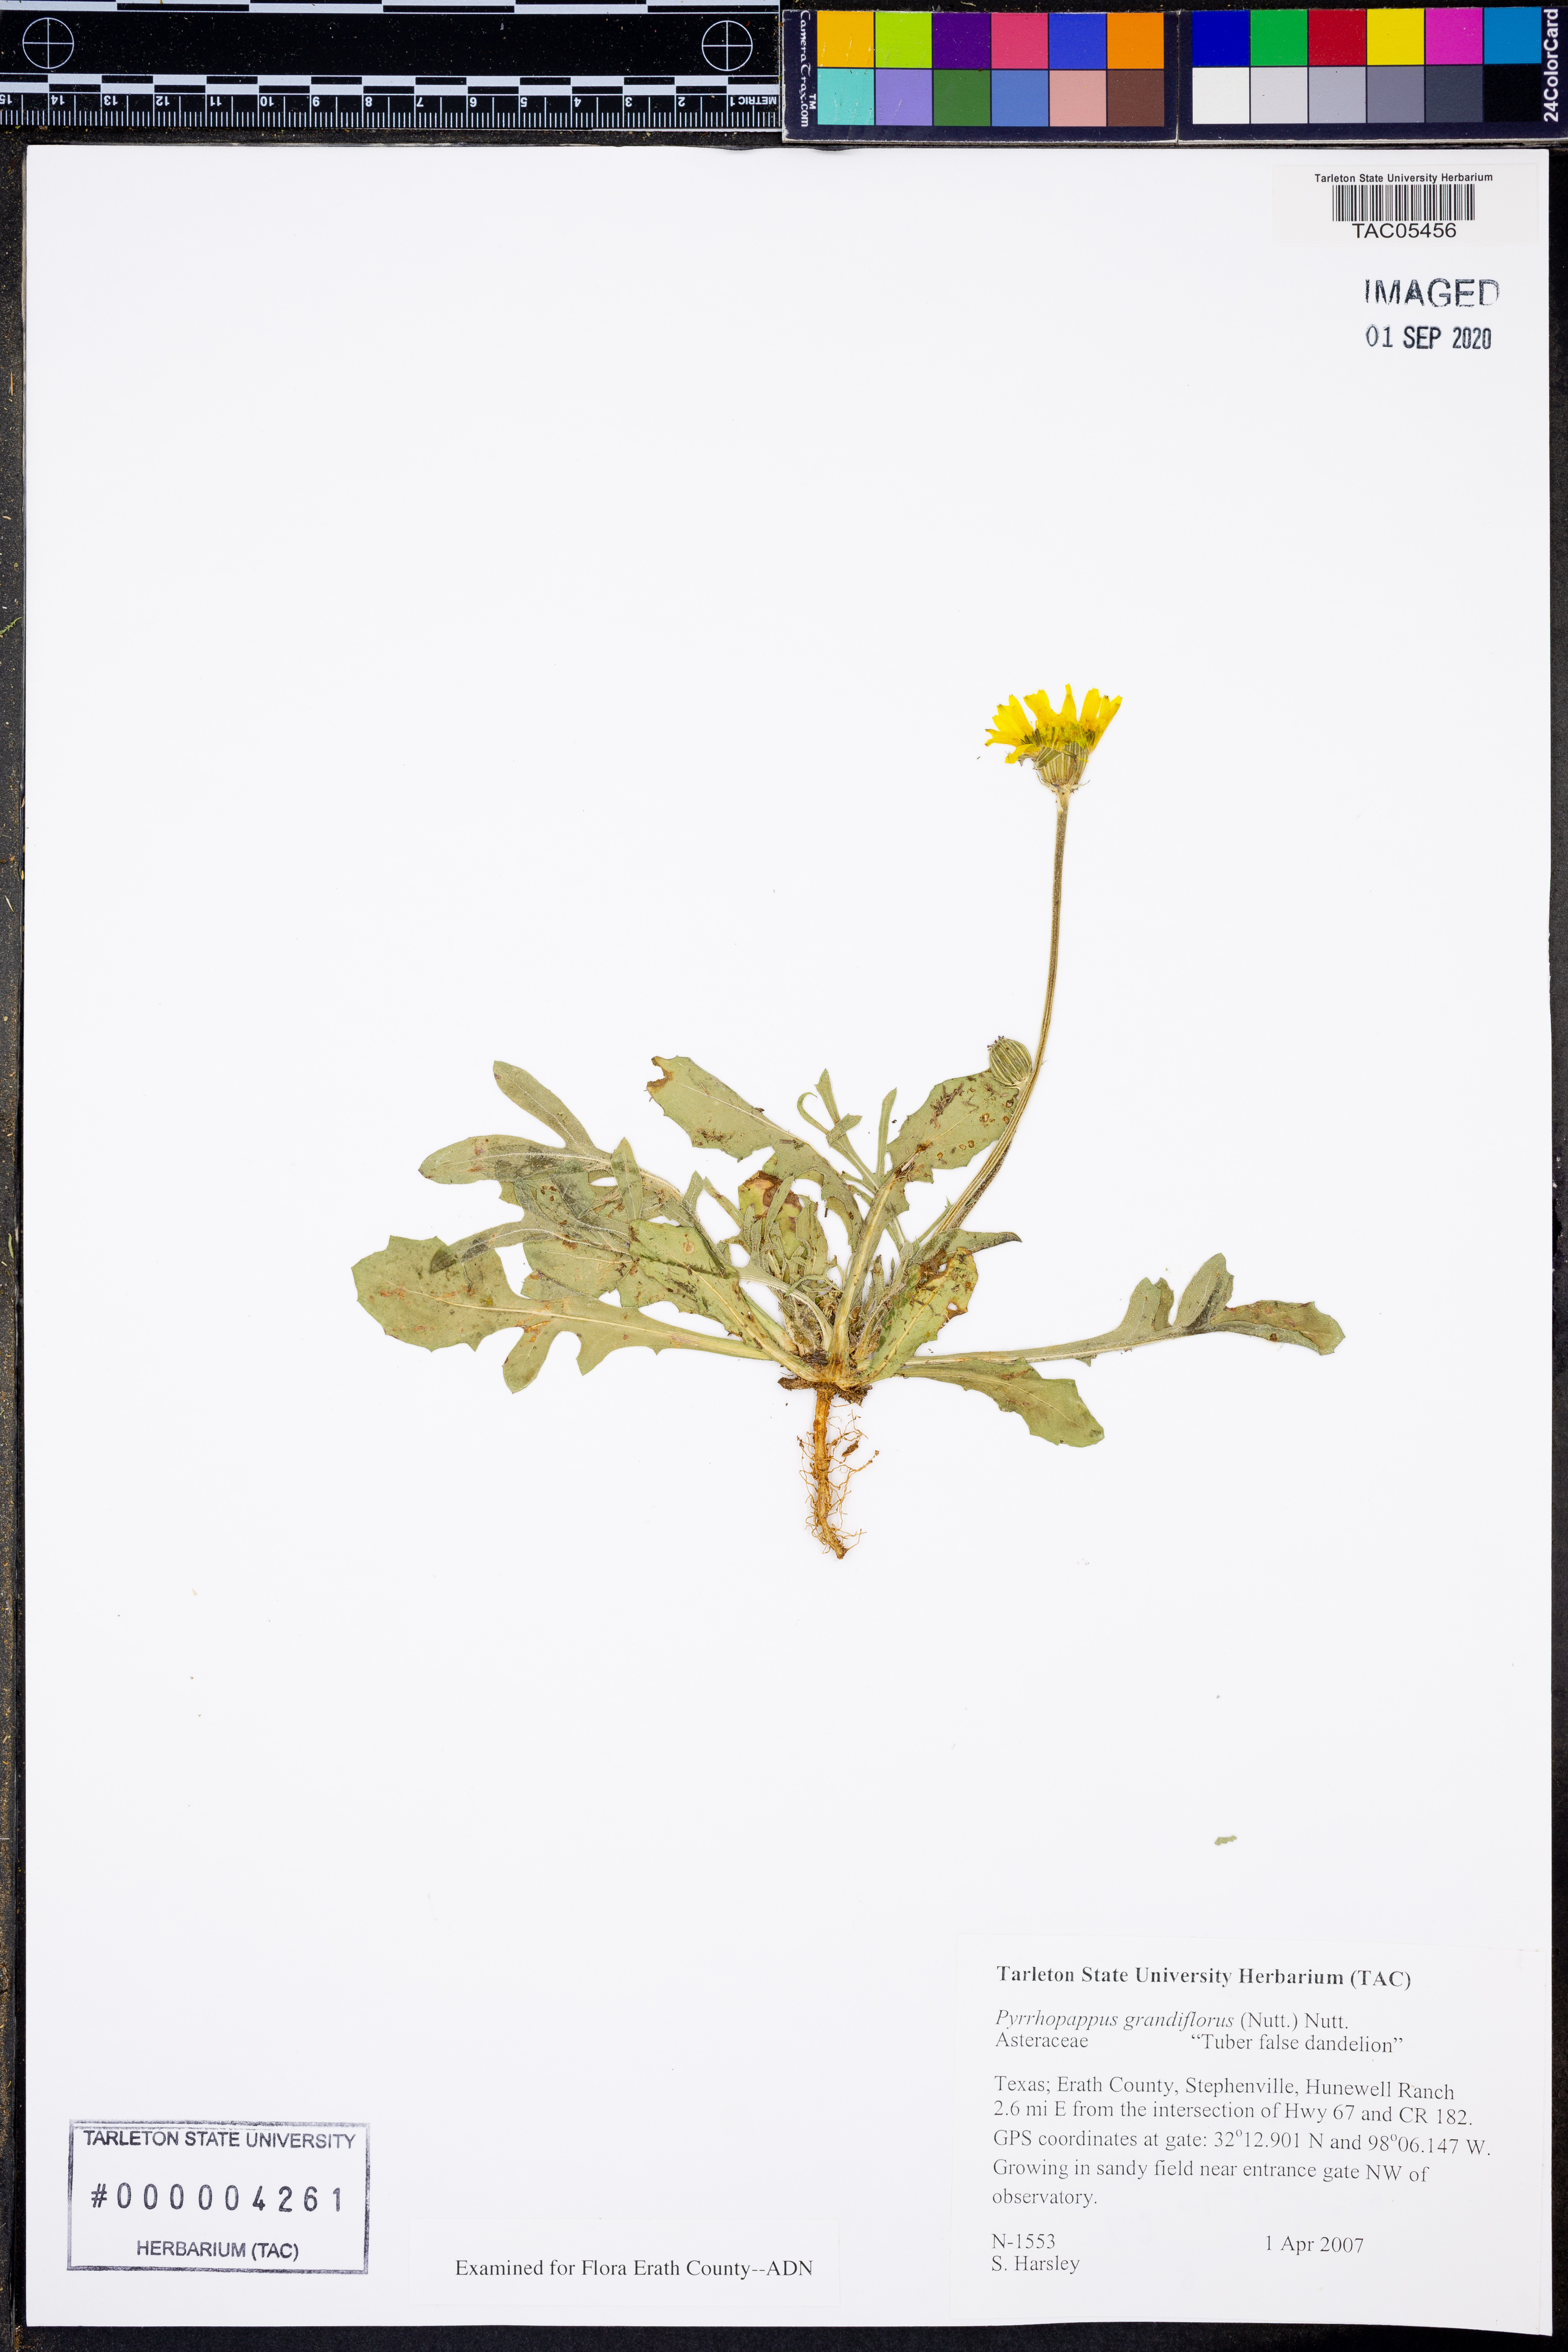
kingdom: Plantae
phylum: Tracheophyta
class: Magnoliopsida
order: Asterales
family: Asteraceae
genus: Pyrrhopappus
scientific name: Pyrrhopappus grandiflorus
